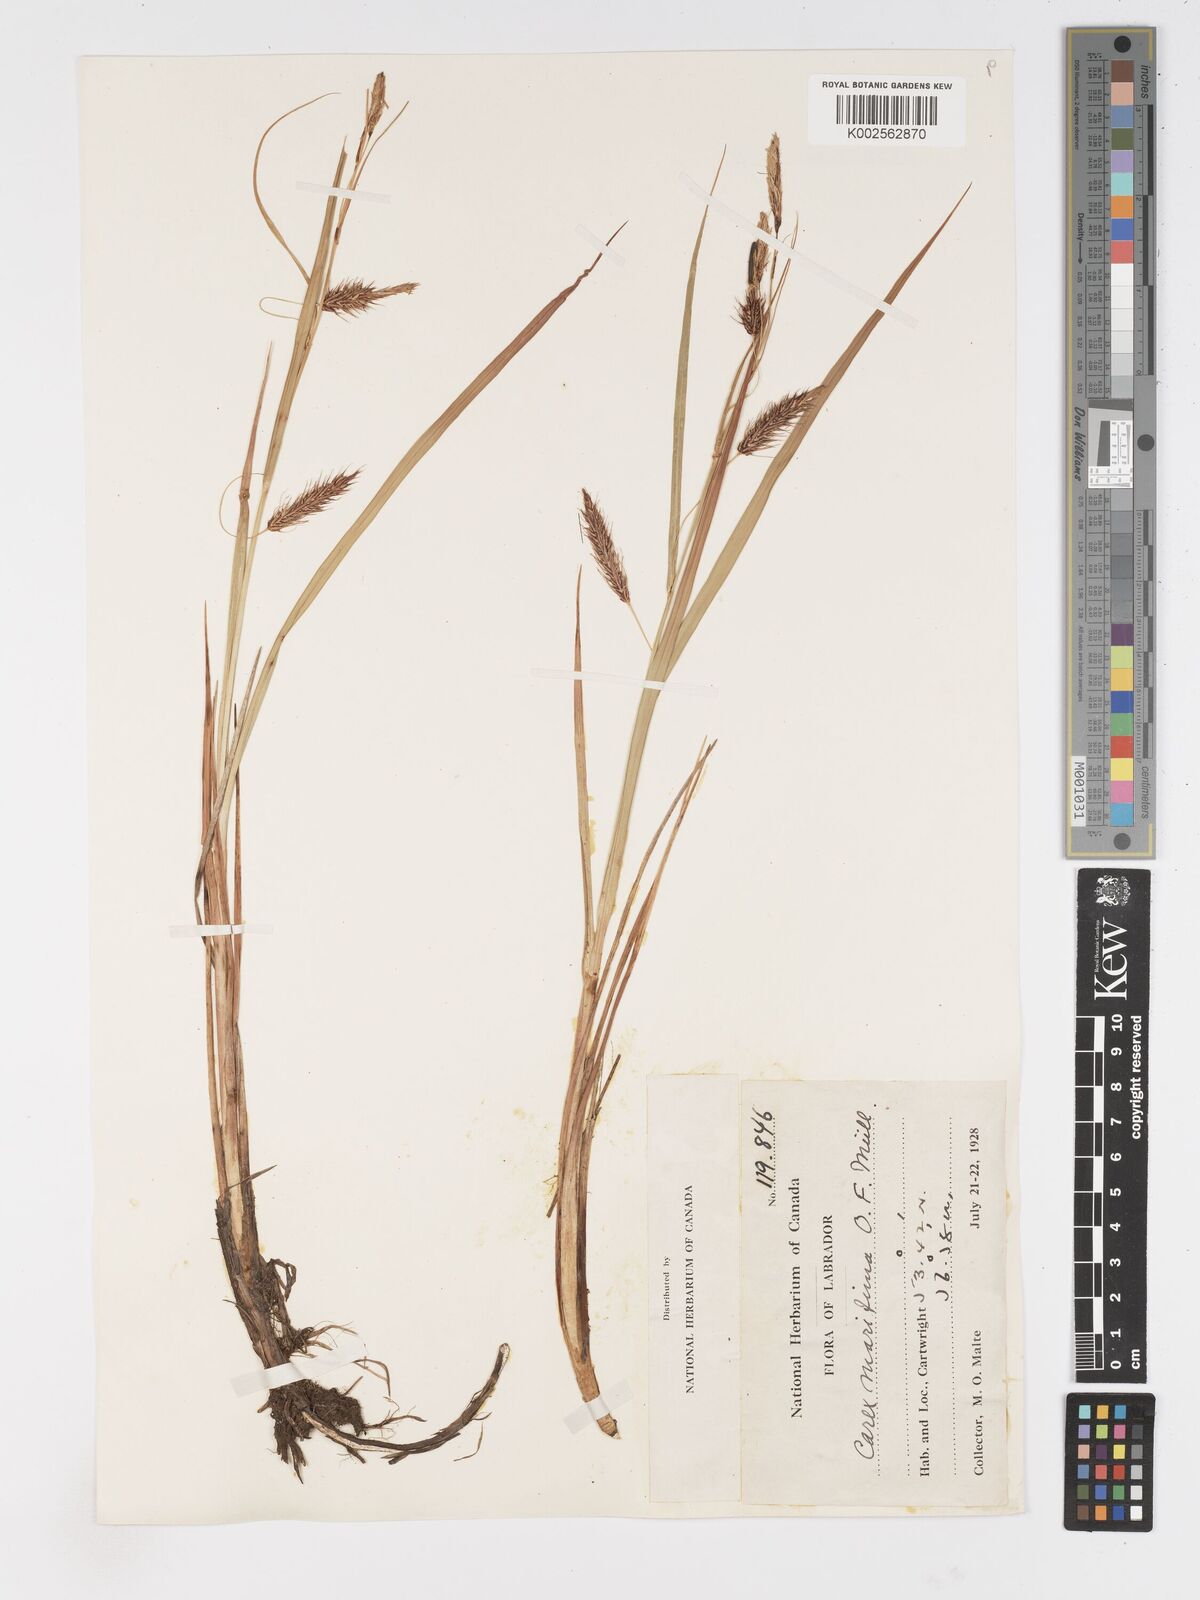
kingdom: Plantae
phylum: Tracheophyta
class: Liliopsida
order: Poales
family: Cyperaceae
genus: Carex
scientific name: Carex paleacea
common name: Chaffy sedge
